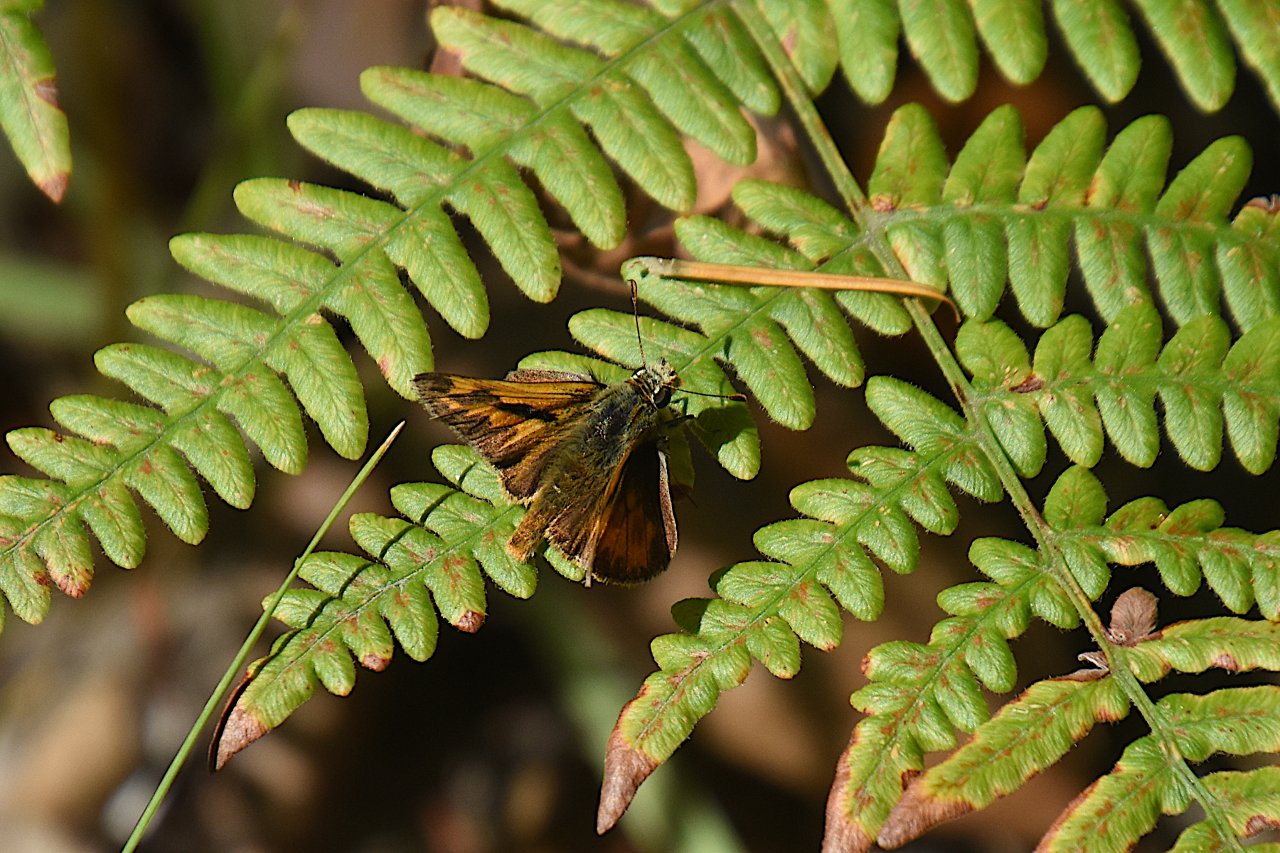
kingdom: Animalia
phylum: Arthropoda
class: Insecta
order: Lepidoptera
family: Hesperiidae
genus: Ochlodes
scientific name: Ochlodes sylvanoides
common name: Woodland Skipper
